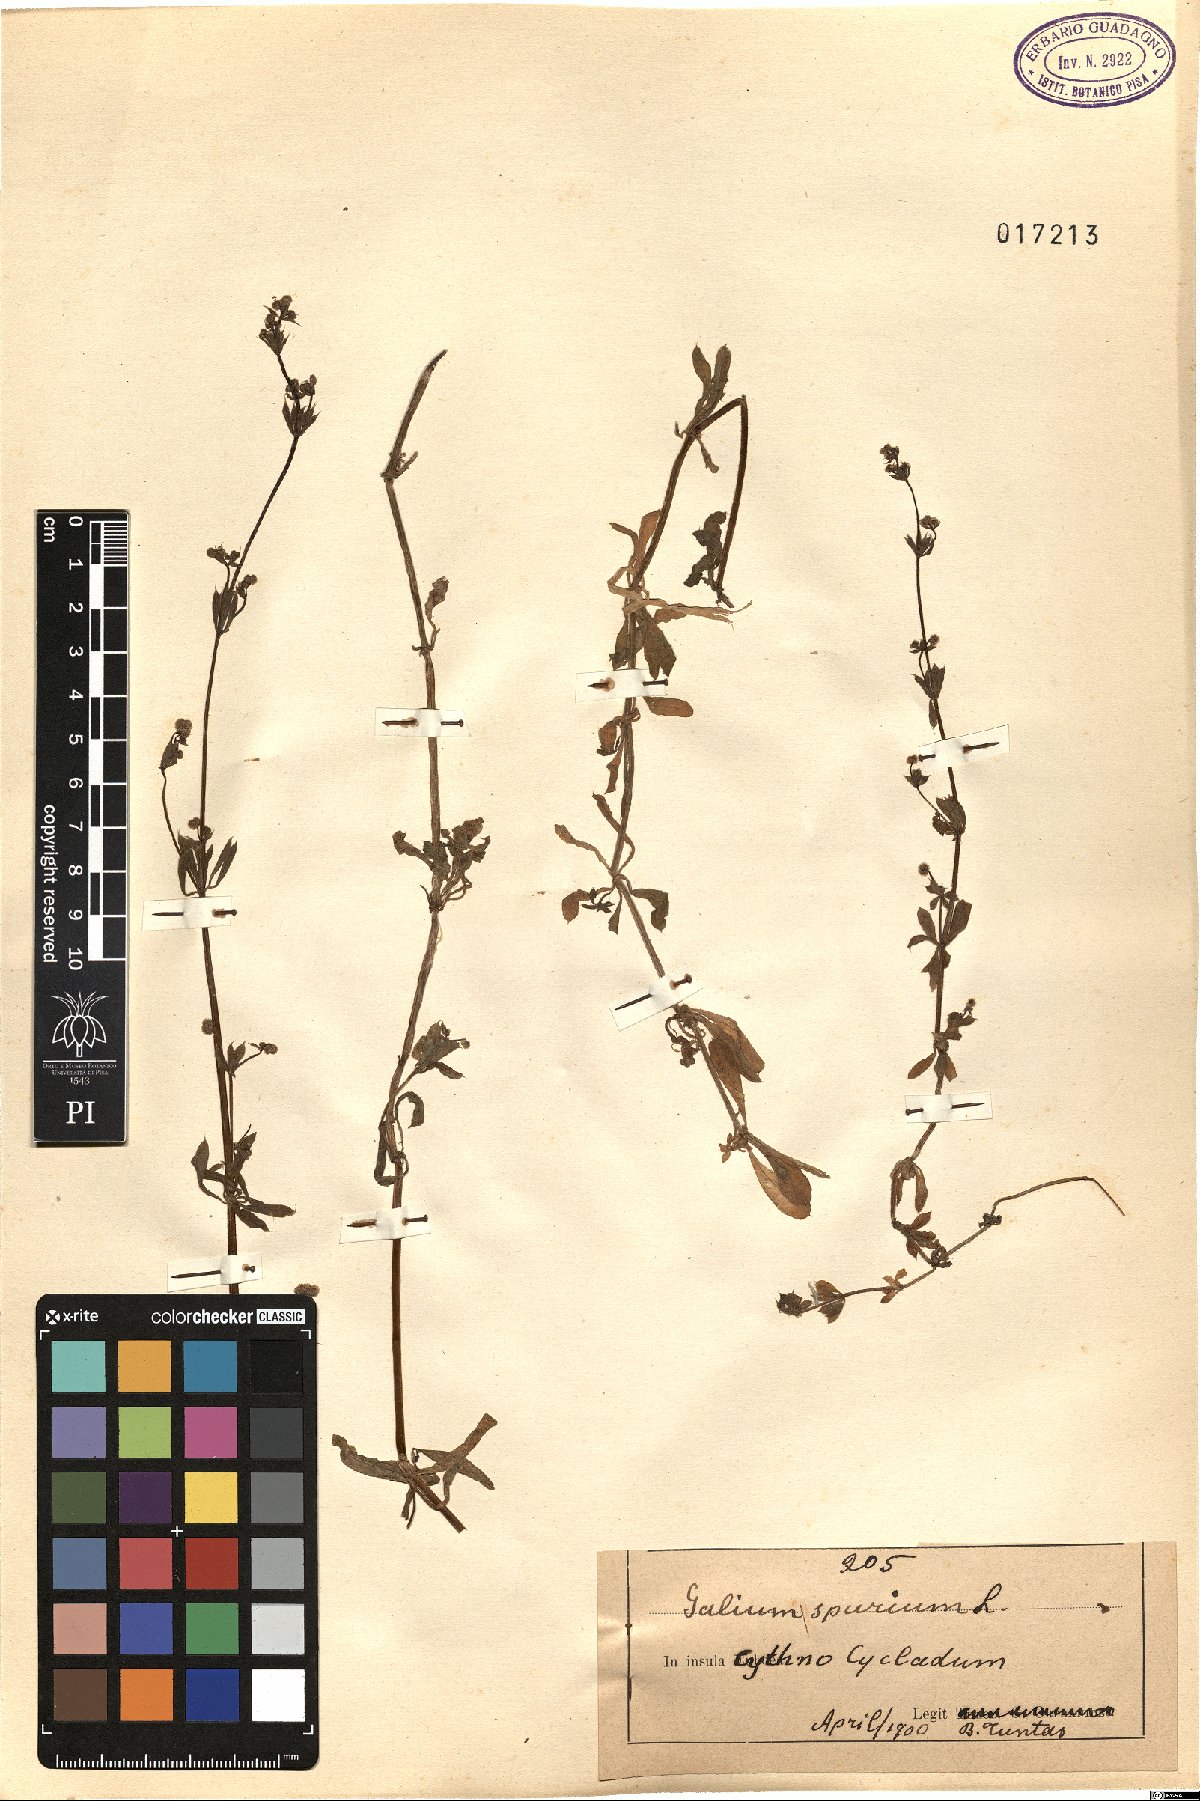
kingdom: Plantae
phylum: Tracheophyta
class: Magnoliopsida
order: Gentianales
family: Rubiaceae
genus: Galium
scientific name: Galium spurium
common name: False cleavers
